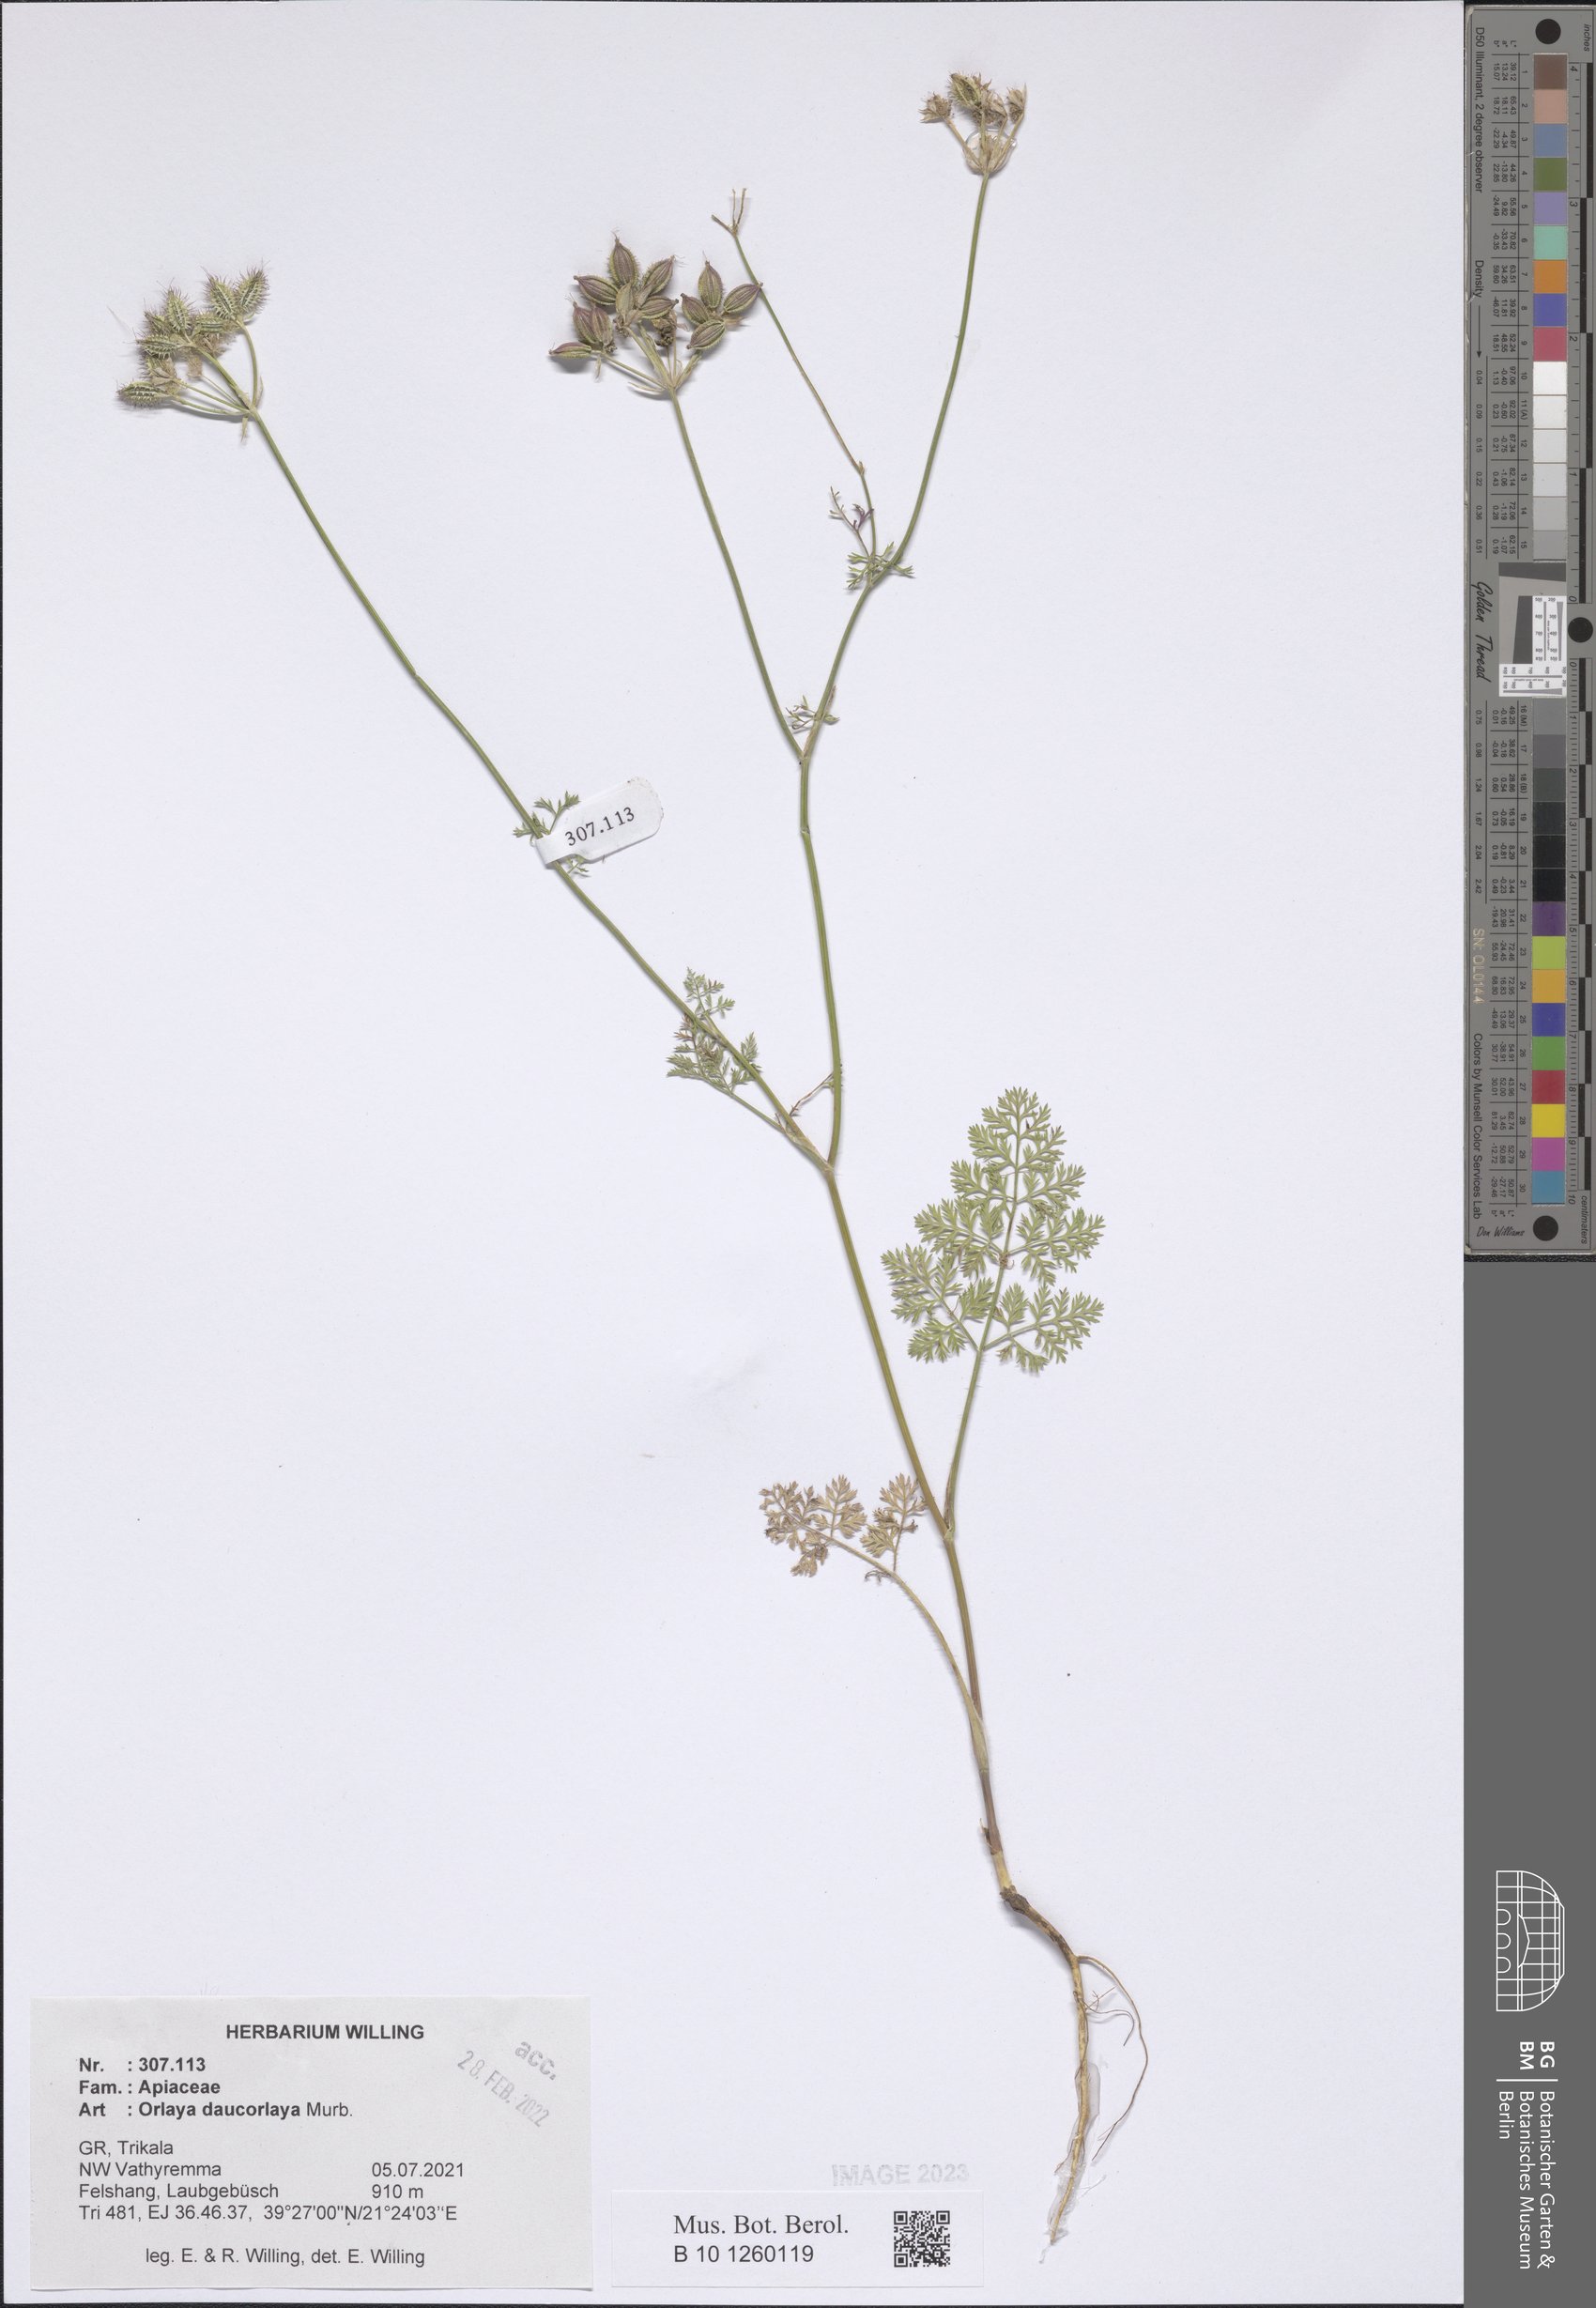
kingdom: Plantae
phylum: Tracheophyta
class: Magnoliopsida
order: Apiales
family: Apiaceae
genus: Orlaya
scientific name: Orlaya daucorlaya
